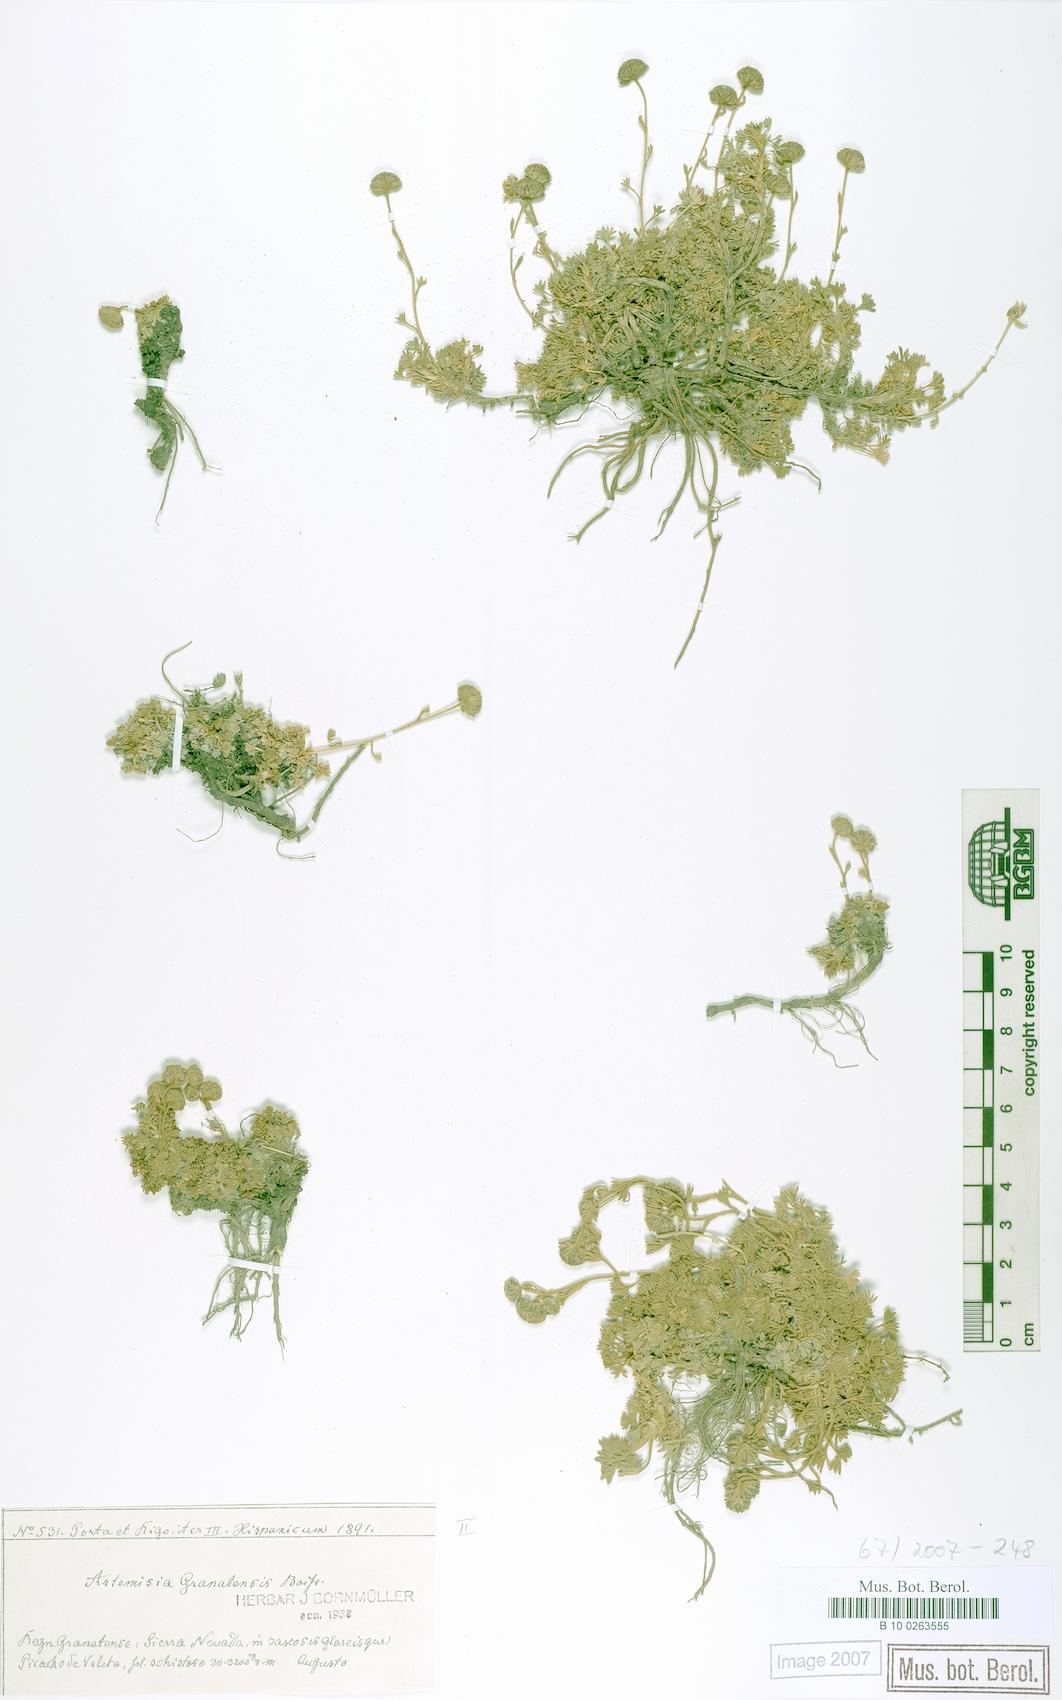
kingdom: Plantae
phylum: Tracheophyta
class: Magnoliopsida
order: Asterales
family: Asteraceae
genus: Artemisia
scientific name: Artemisia granatensis
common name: Royal chamomile
